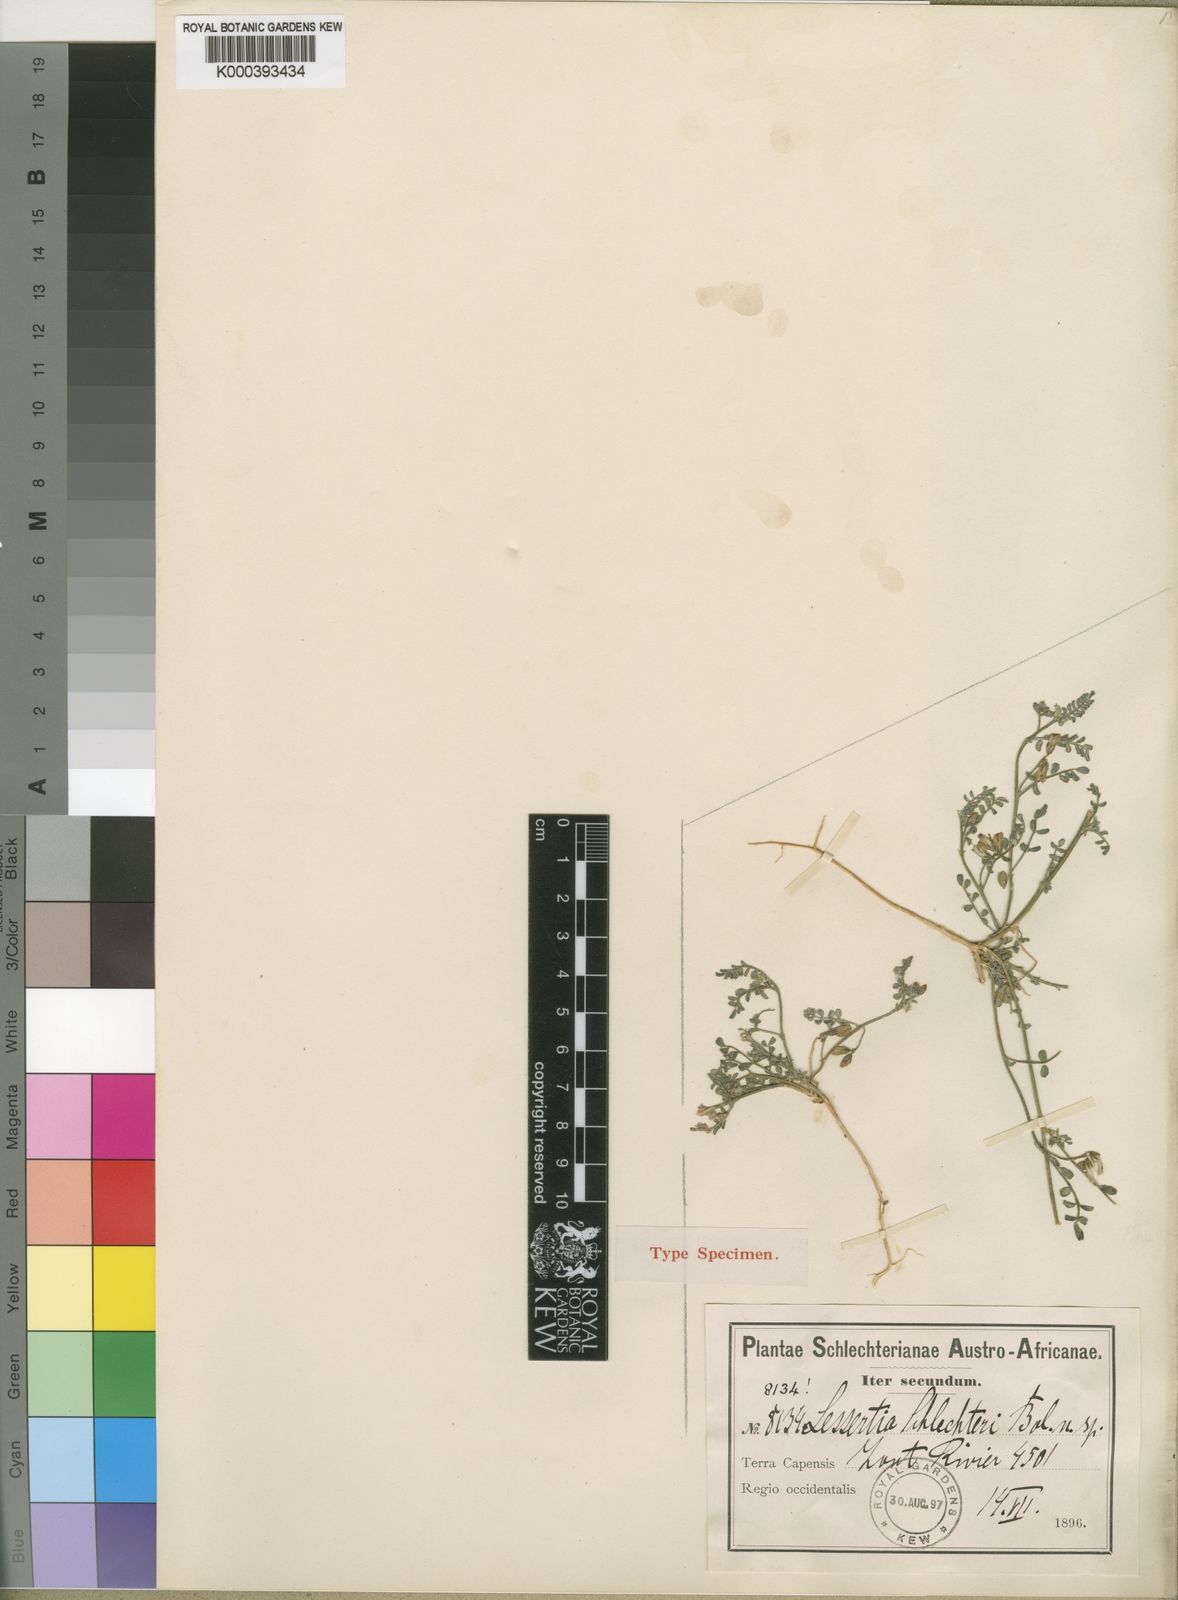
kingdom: Plantae
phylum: Tracheophyta
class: Magnoliopsida
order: Fabales
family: Fabaceae
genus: Lessertia
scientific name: Lessertia
